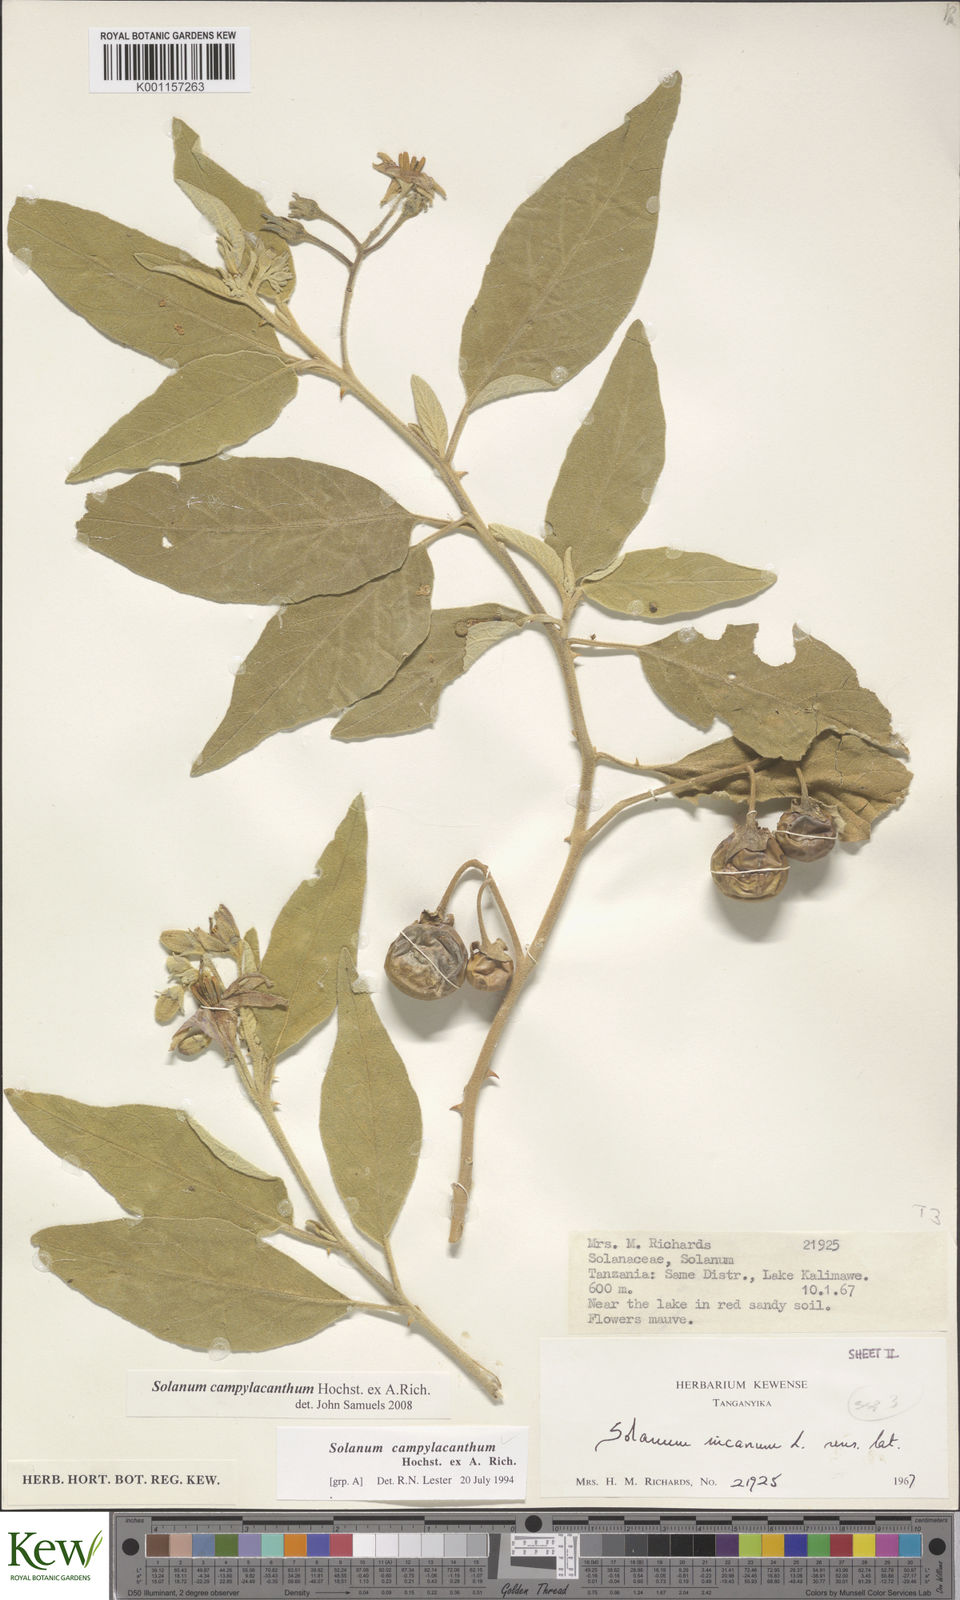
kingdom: Plantae
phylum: Tracheophyta
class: Magnoliopsida
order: Solanales
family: Solanaceae
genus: Solanum
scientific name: Solanum campylacanthum
